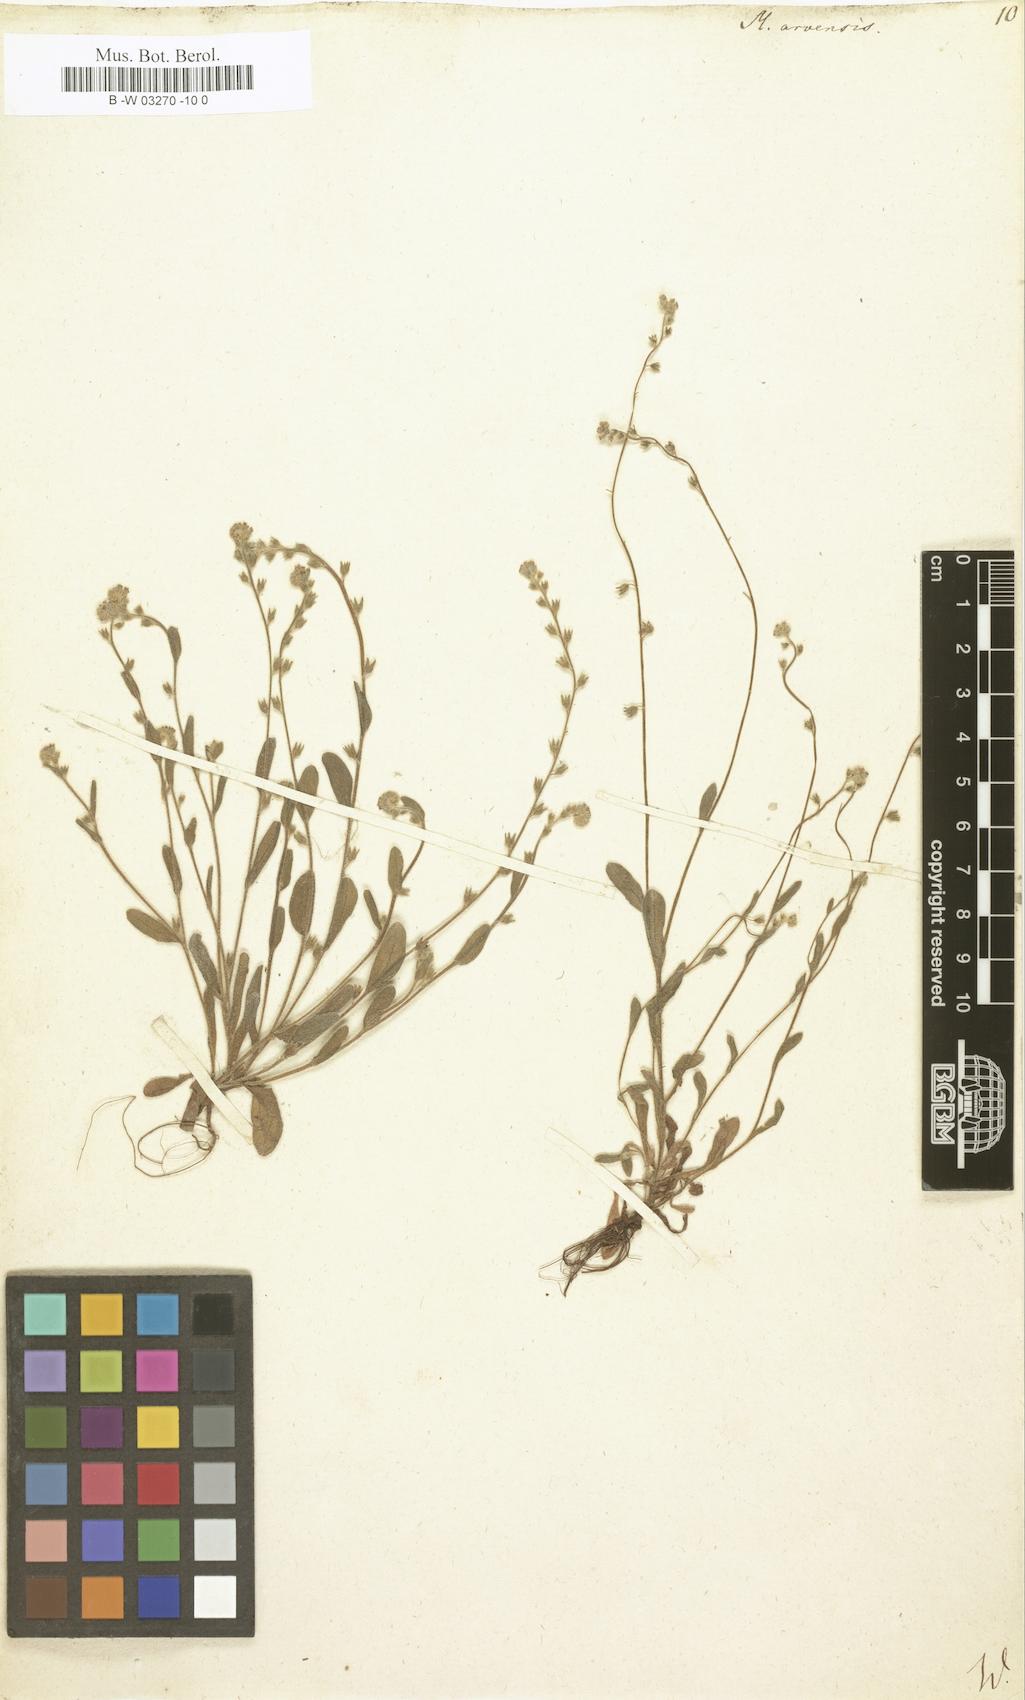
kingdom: Plantae
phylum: Tracheophyta
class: Magnoliopsida
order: Boraginales
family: Boraginaceae
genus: Myosotis
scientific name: Myosotis arvensis
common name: Field forget-me-not
